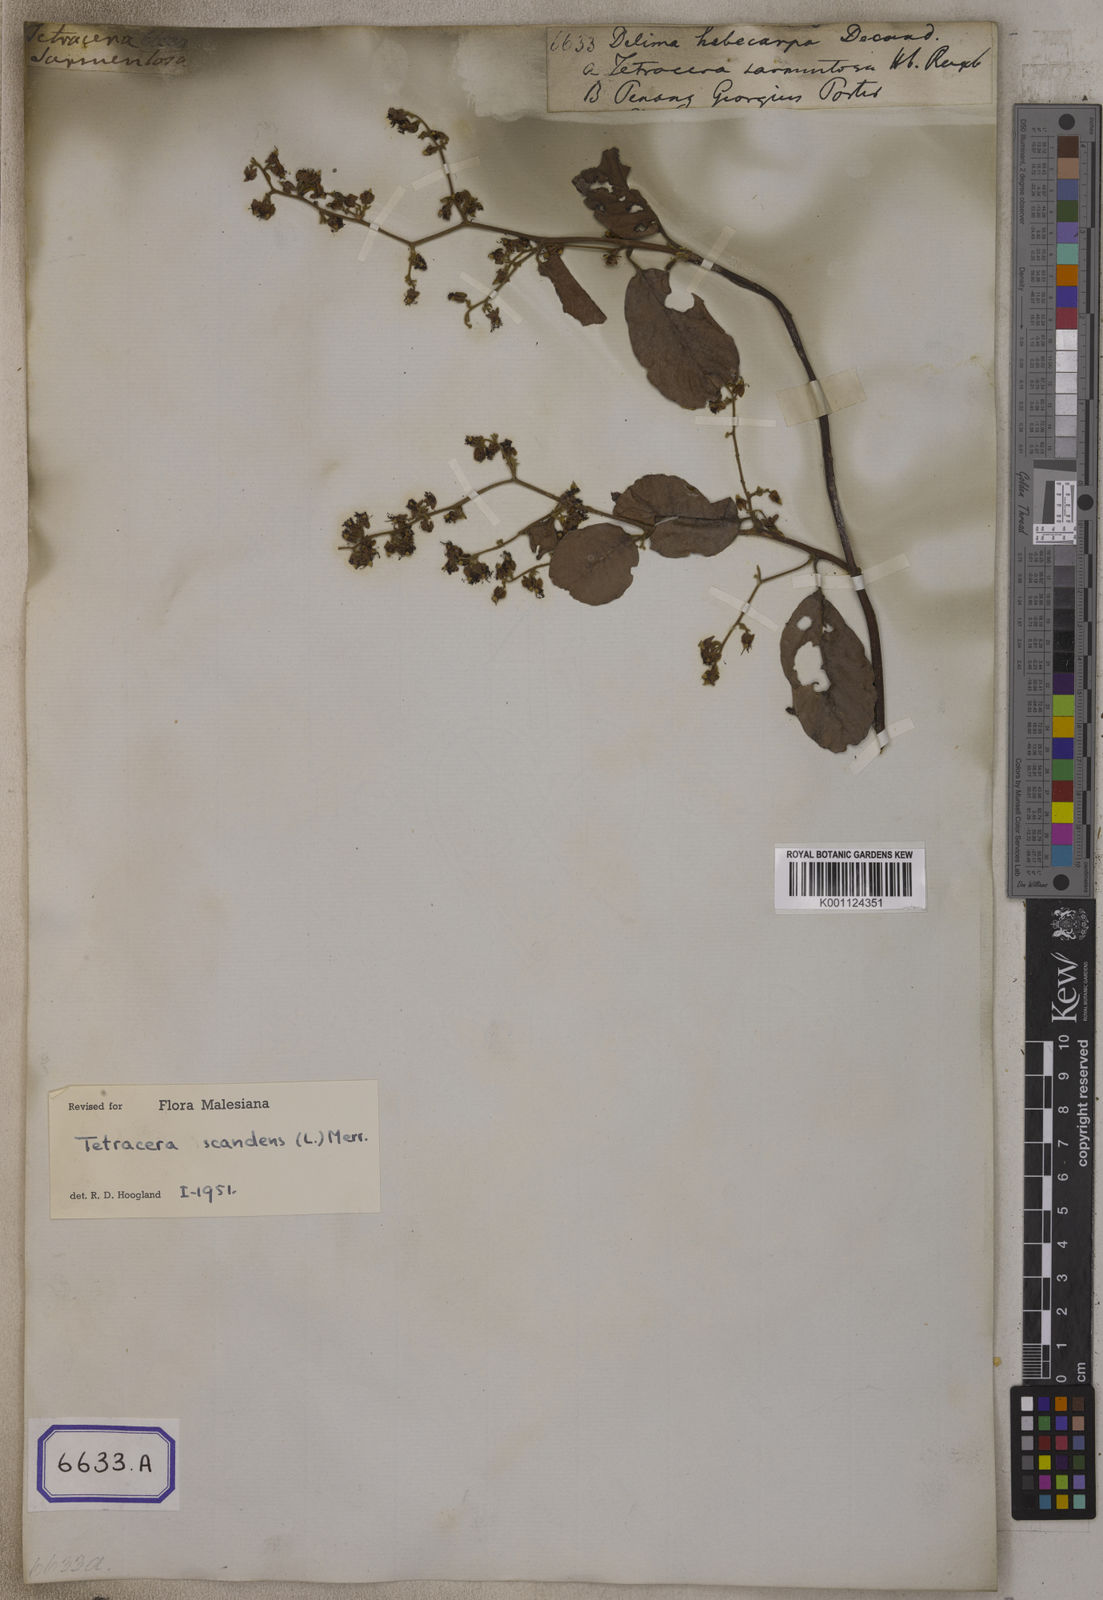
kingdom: Plantae
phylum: Tracheophyta
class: Magnoliopsida
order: Dilleniales
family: Dilleniaceae
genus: Tetracera
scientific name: Tetracera scandens
